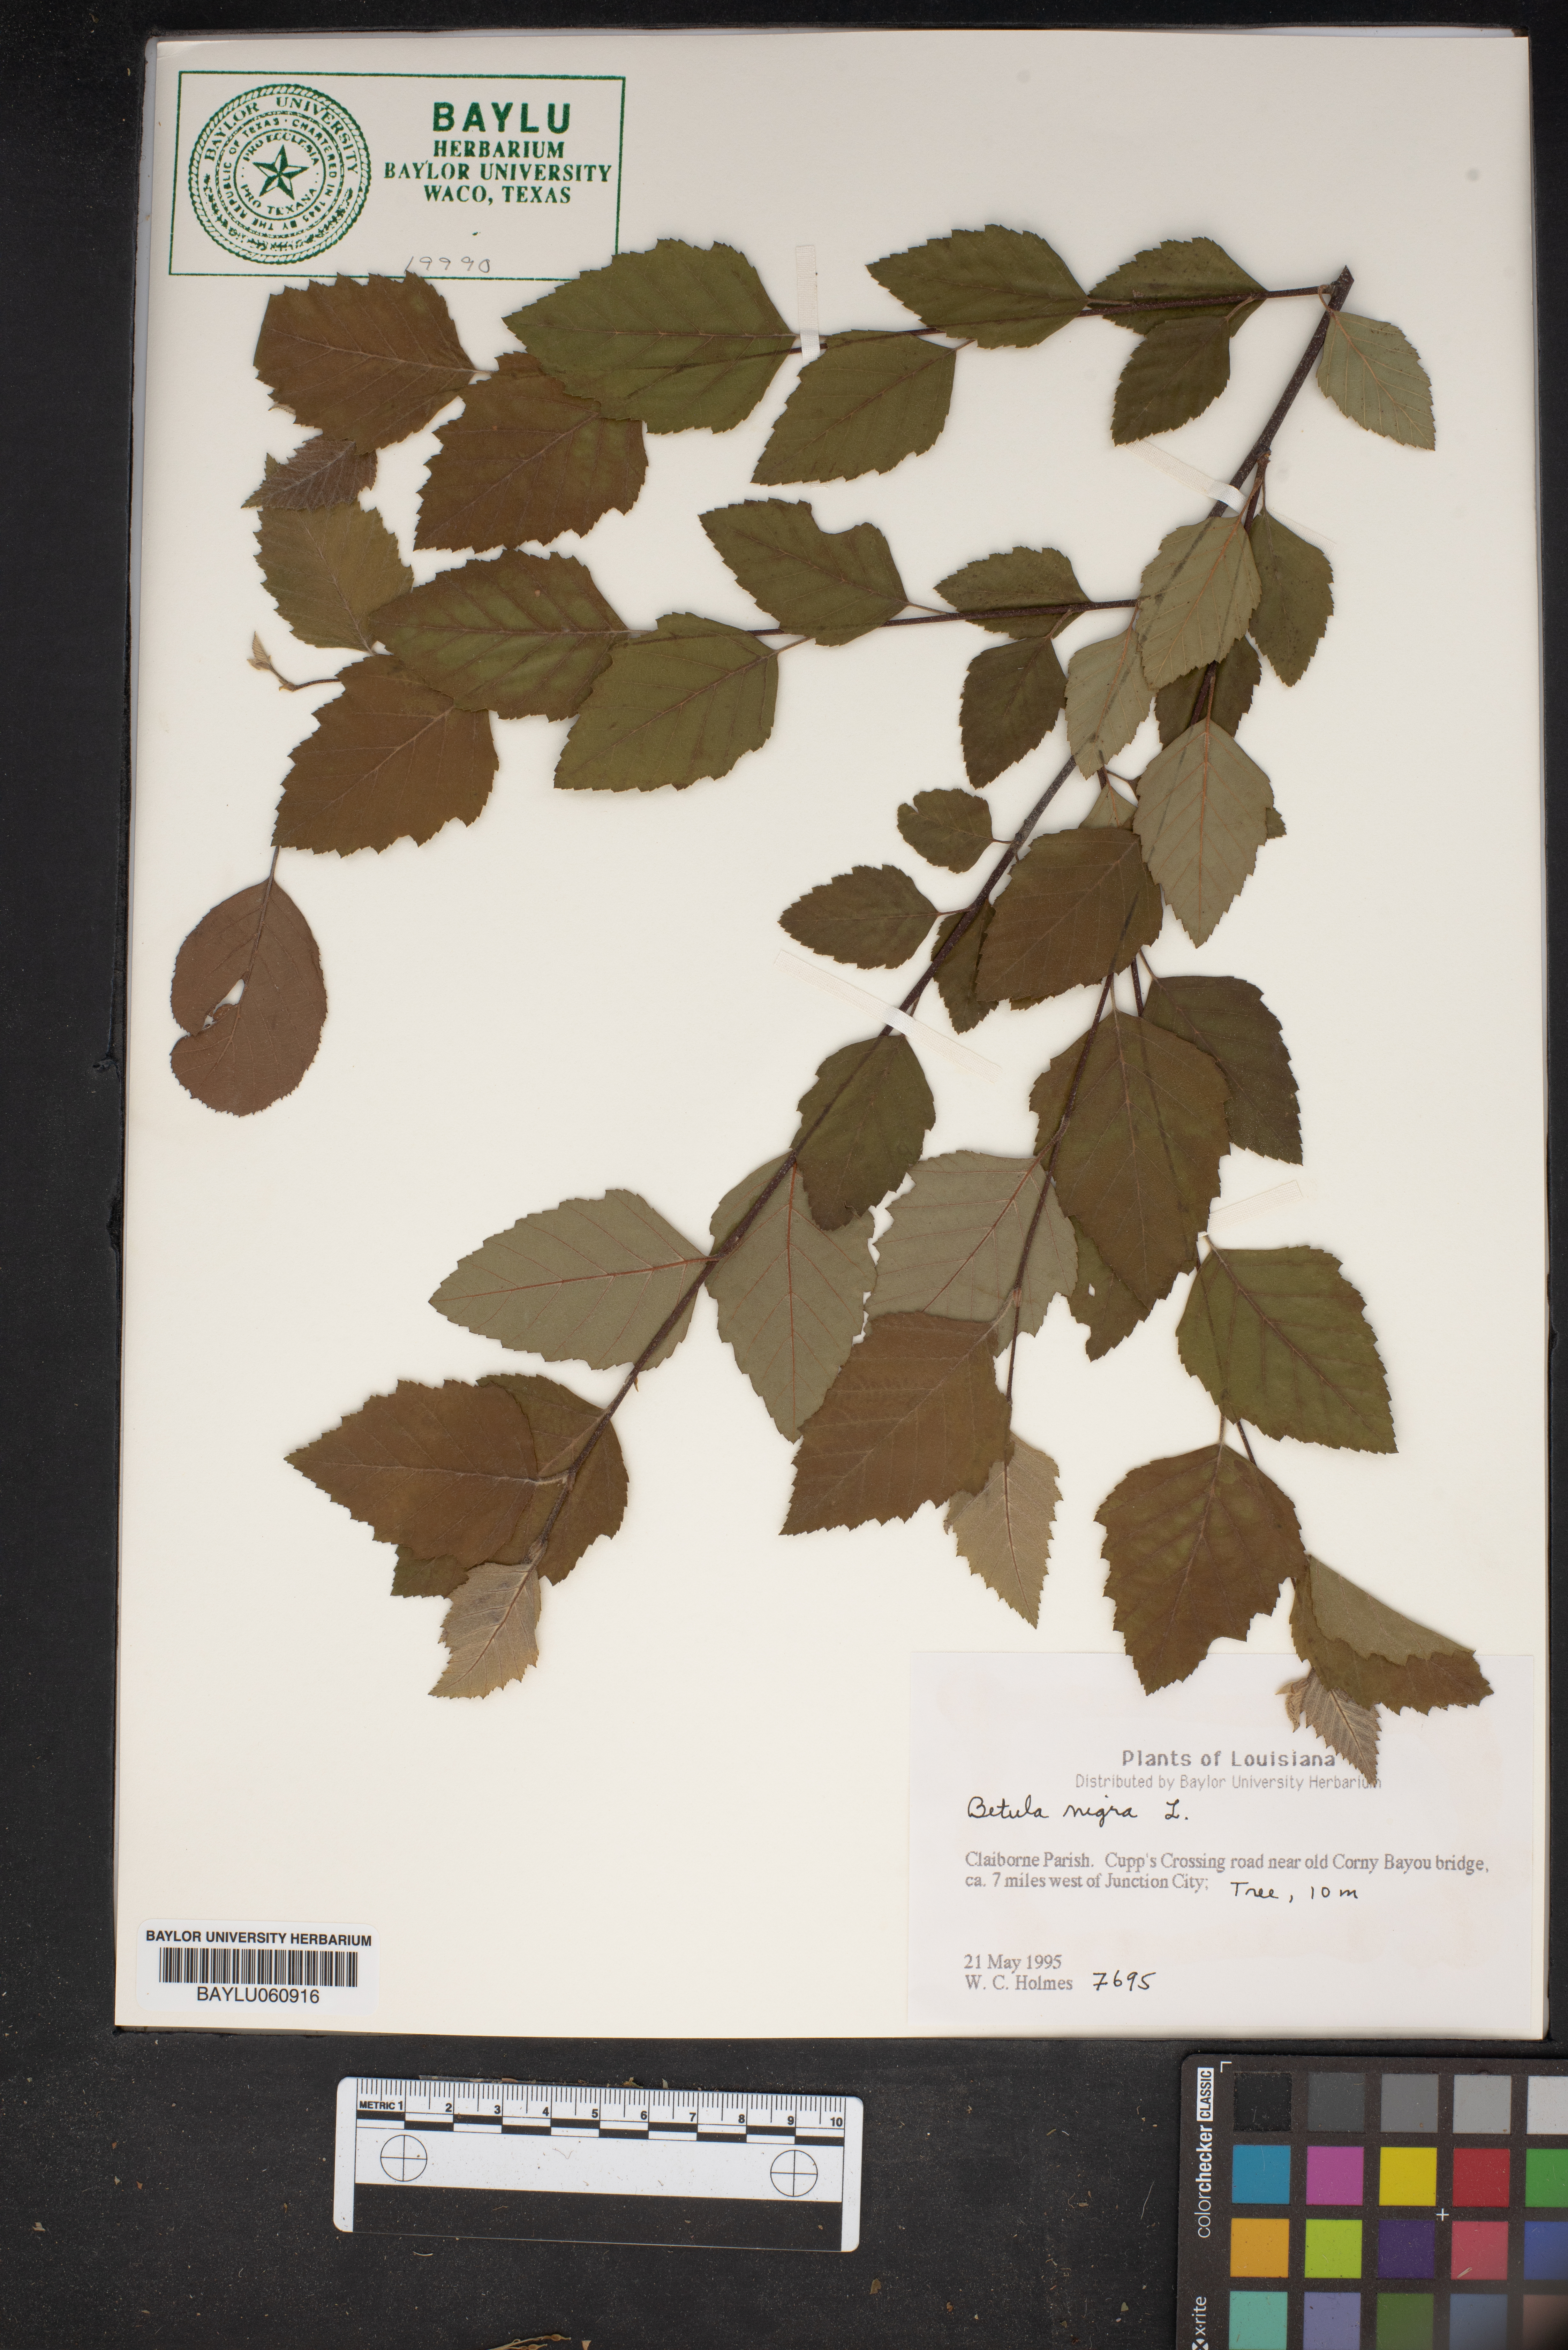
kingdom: Plantae
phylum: Tracheophyta
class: Magnoliopsida
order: Fagales
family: Betulaceae
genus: Betula
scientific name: Betula nigra
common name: Black birch
